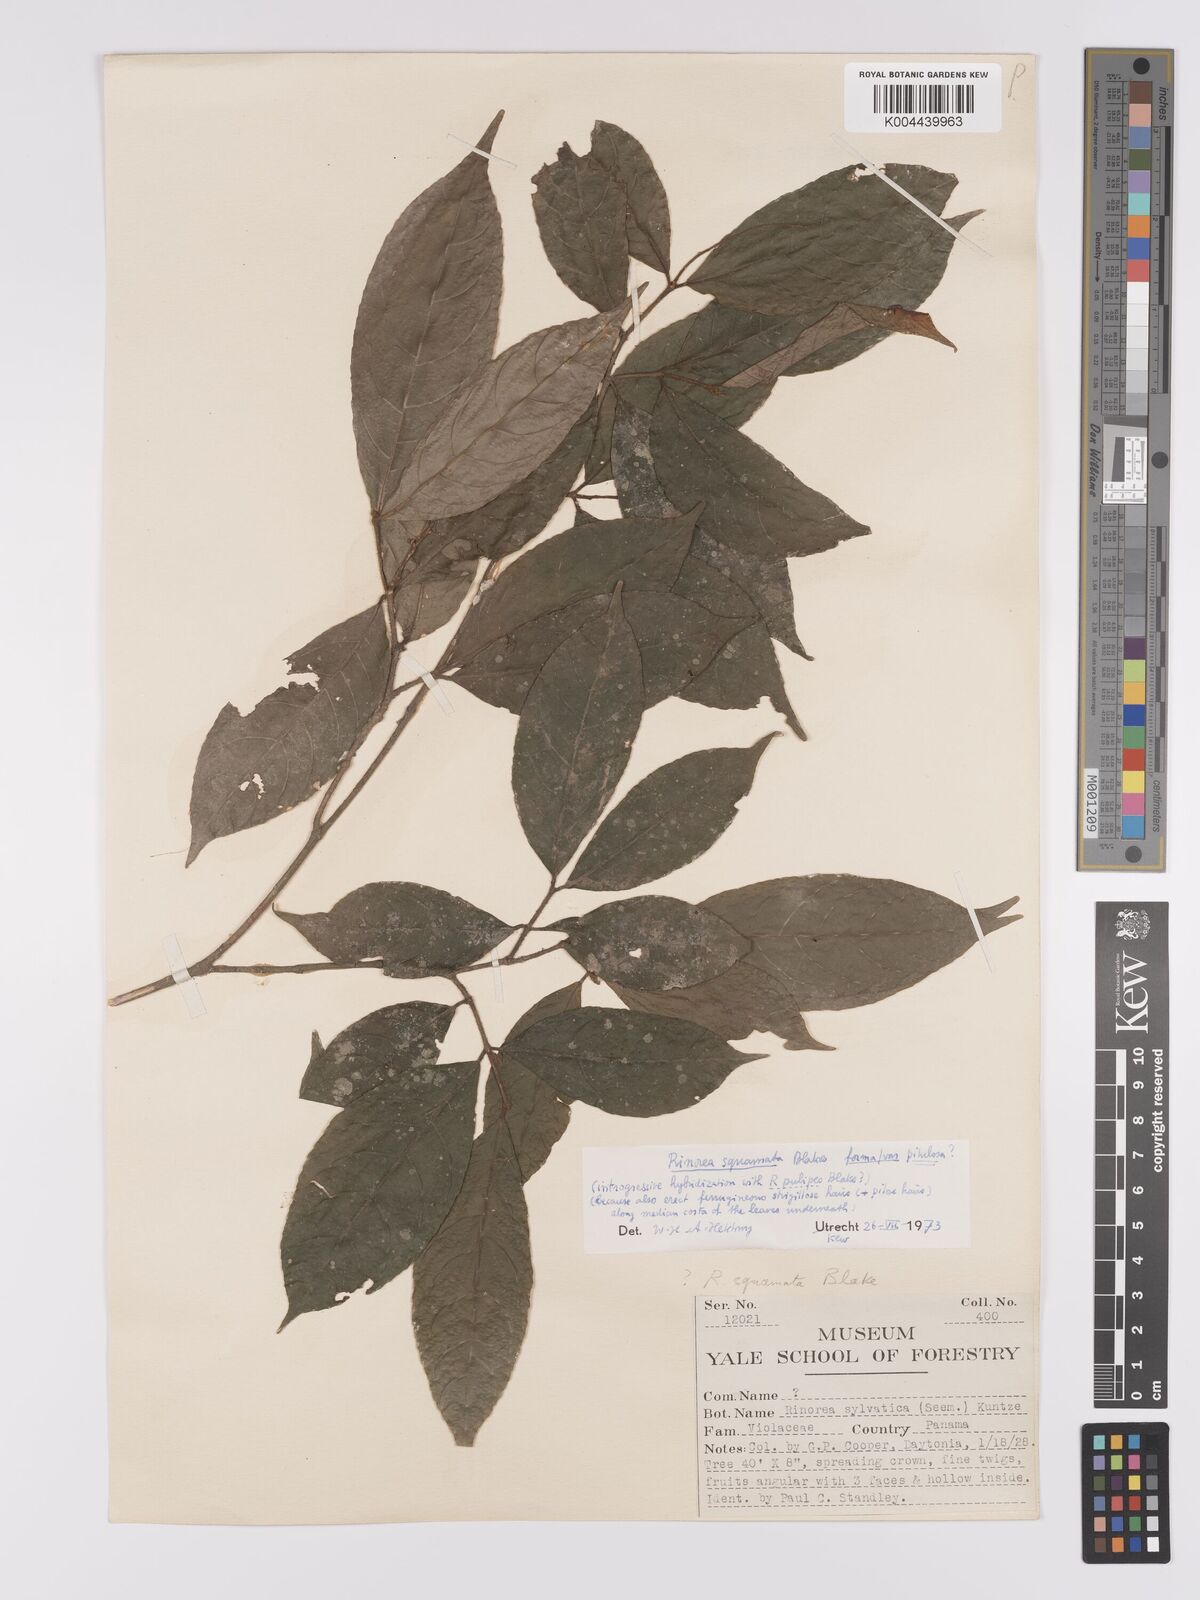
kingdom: Plantae
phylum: Tracheophyta
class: Magnoliopsida
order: Malpighiales
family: Violaceae
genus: Rinorea
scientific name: Rinorea squamata
